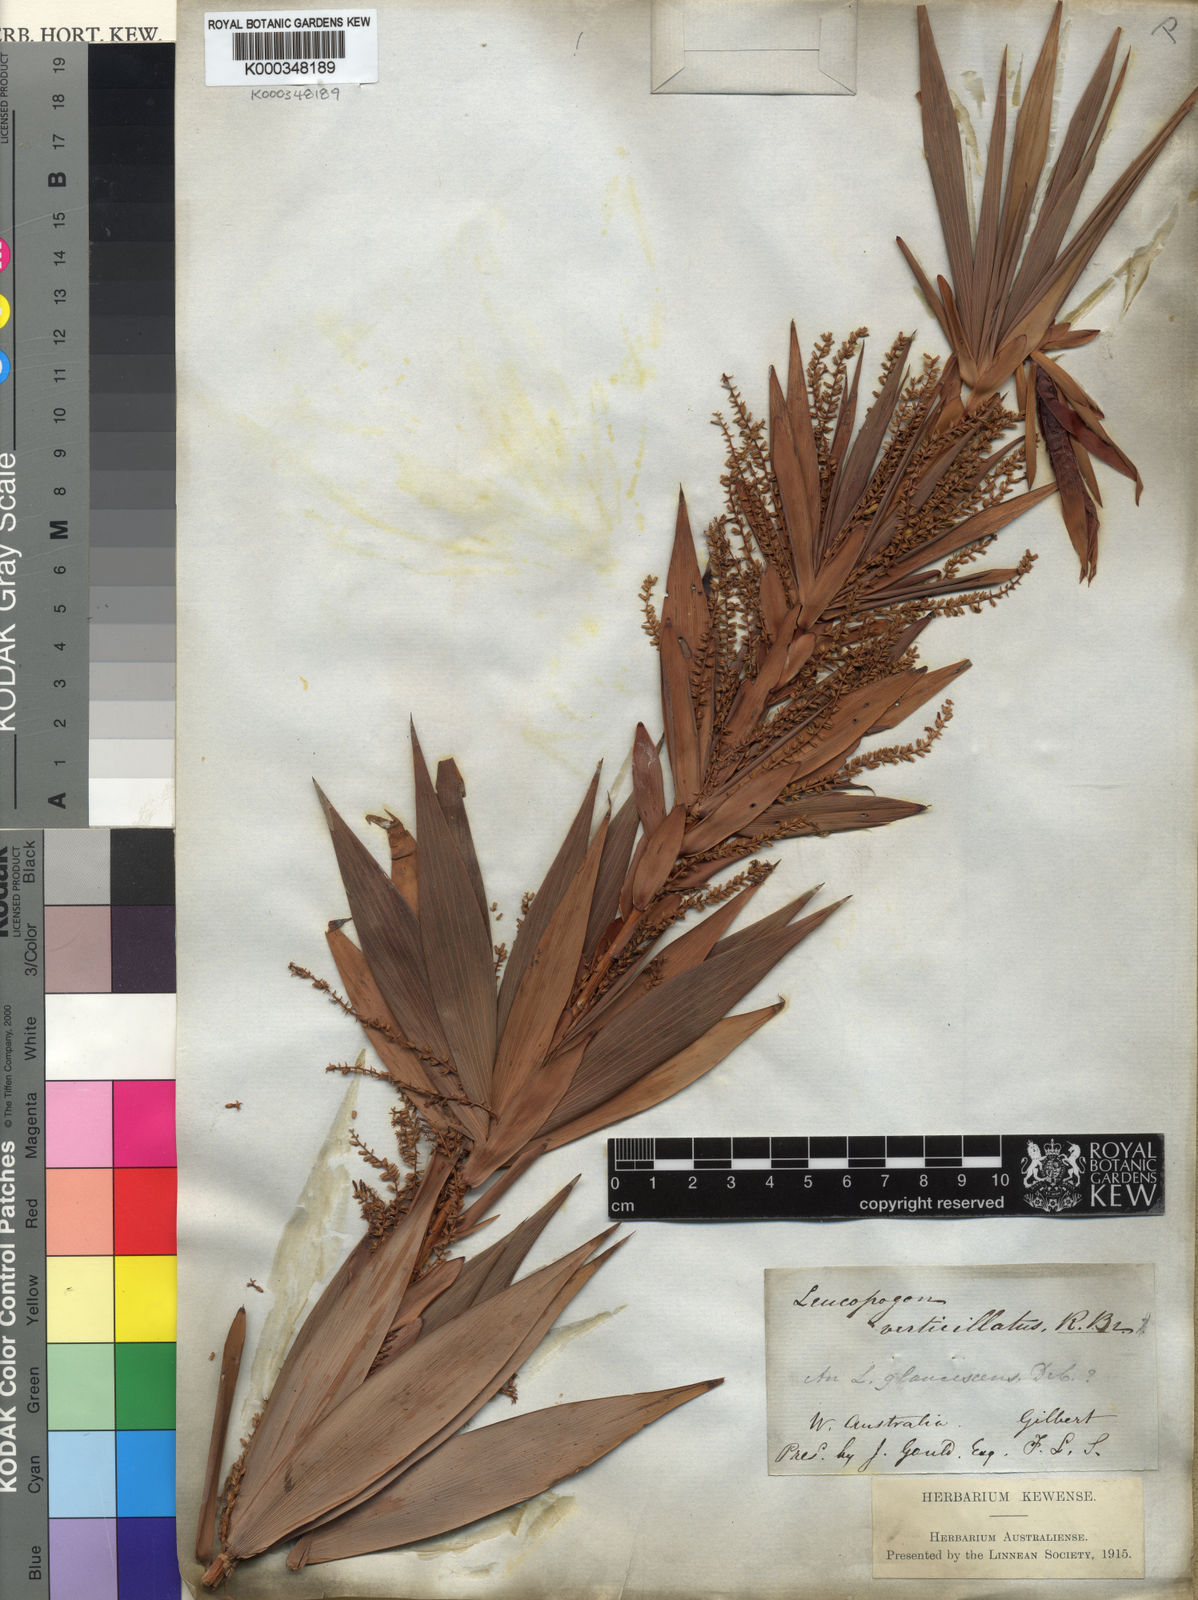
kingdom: Plantae
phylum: Tracheophyta
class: Magnoliopsida
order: Ericales
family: Ericaceae
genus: Leucopogon
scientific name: Leucopogon verticillatus
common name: Tasselshrub
